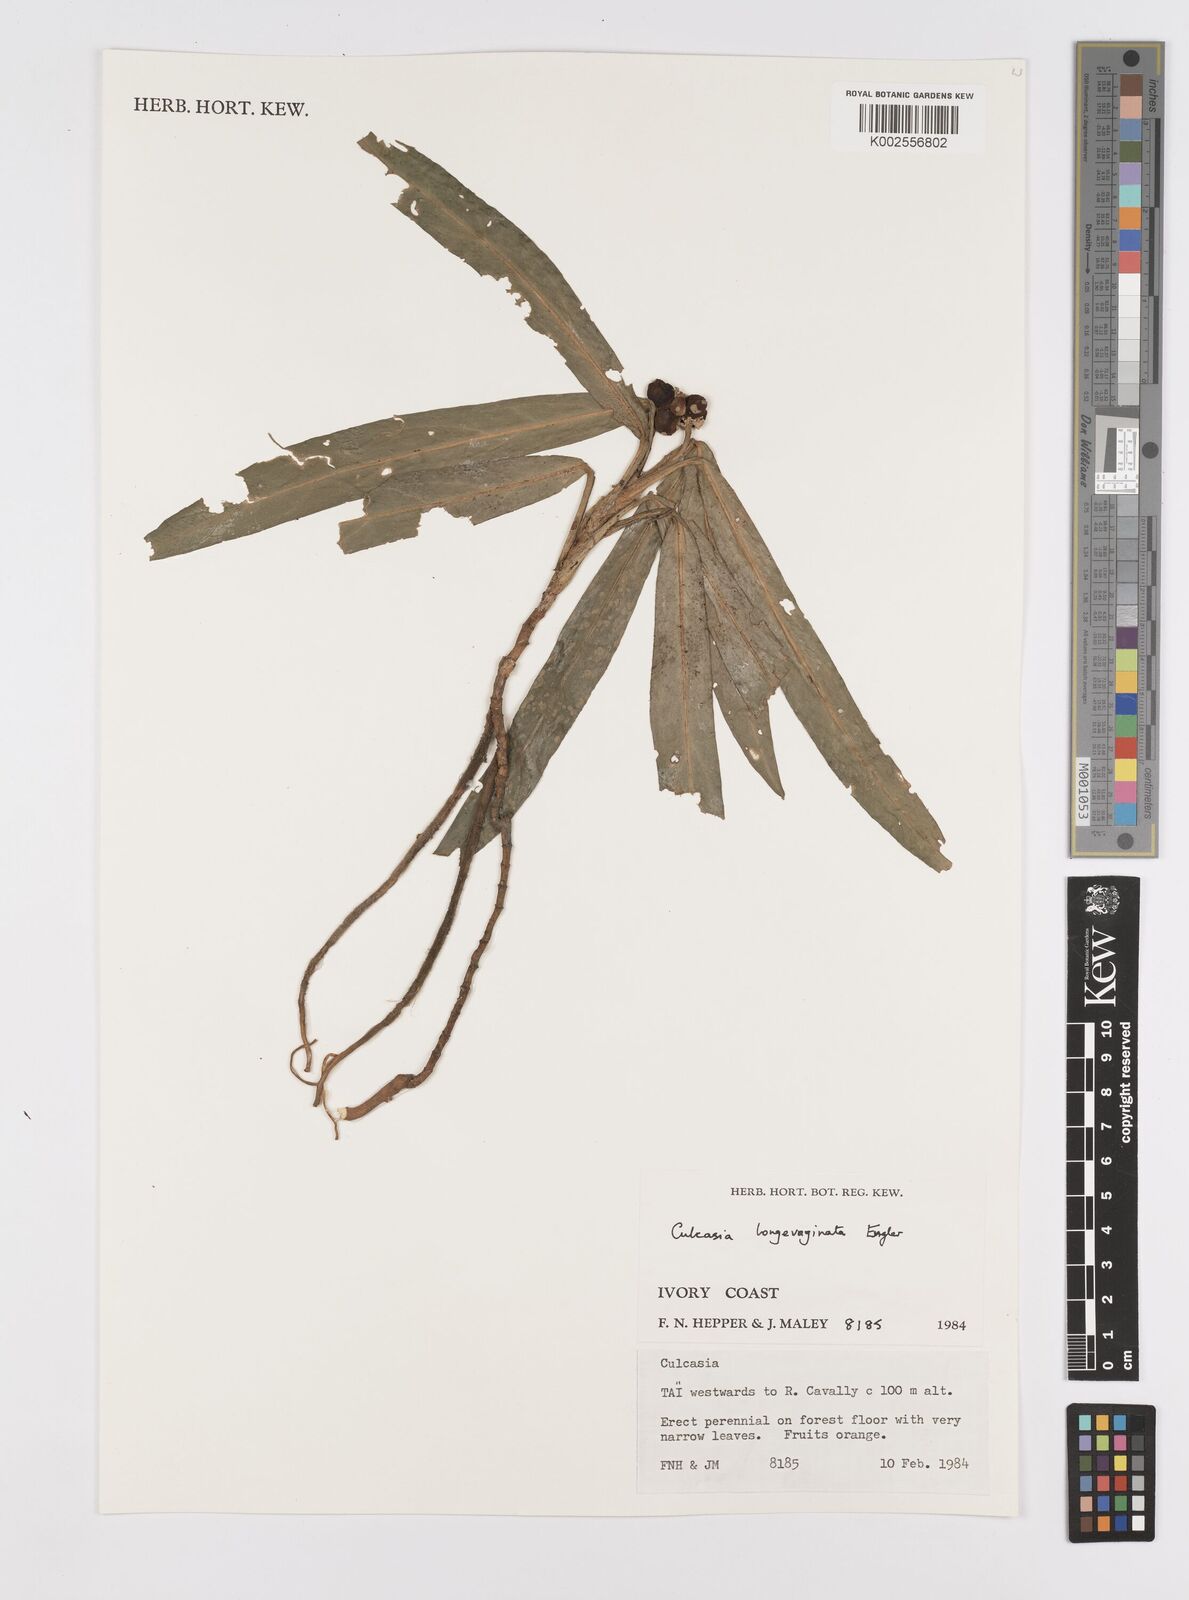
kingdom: Plantae
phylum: Tracheophyta
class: Liliopsida
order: Alismatales
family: Araceae
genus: Culcasia
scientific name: Culcasia striolata
